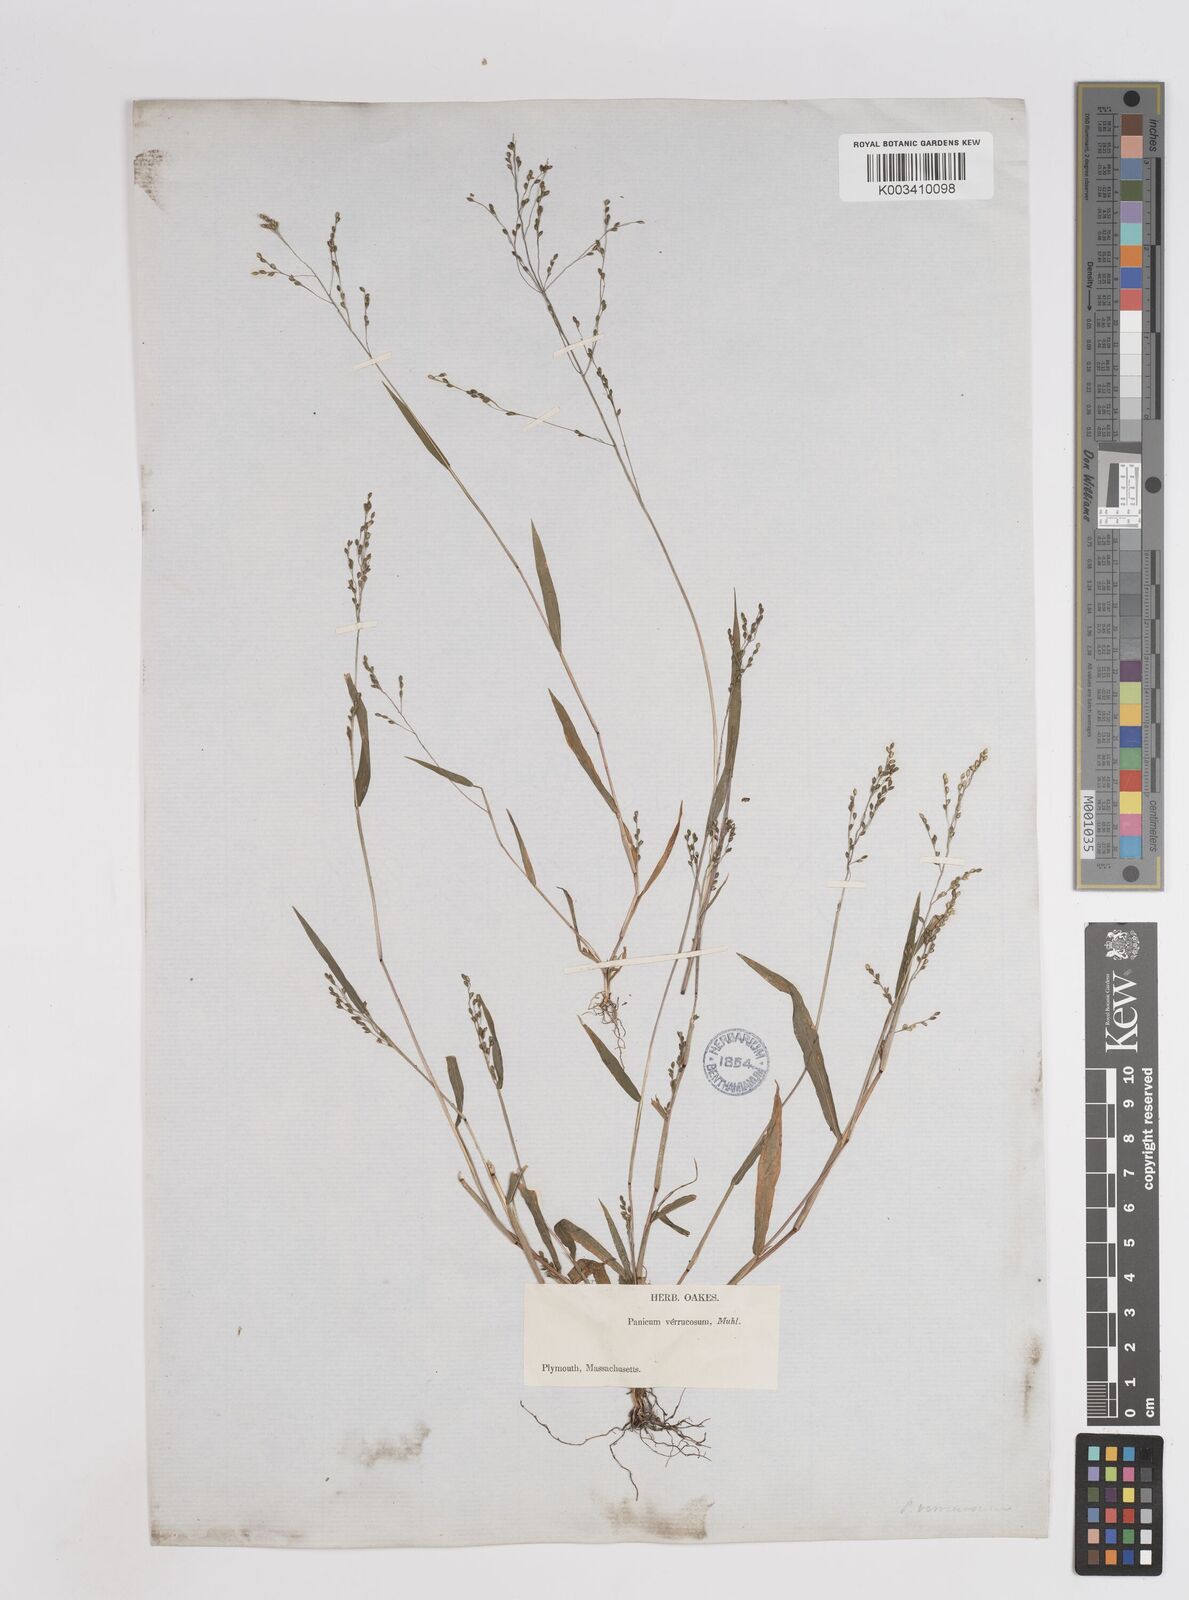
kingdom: Plantae
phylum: Tracheophyta
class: Liliopsida
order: Poales
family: Poaceae
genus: Kellochloa
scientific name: Kellochloa verrucosa
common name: Warty panic grass
